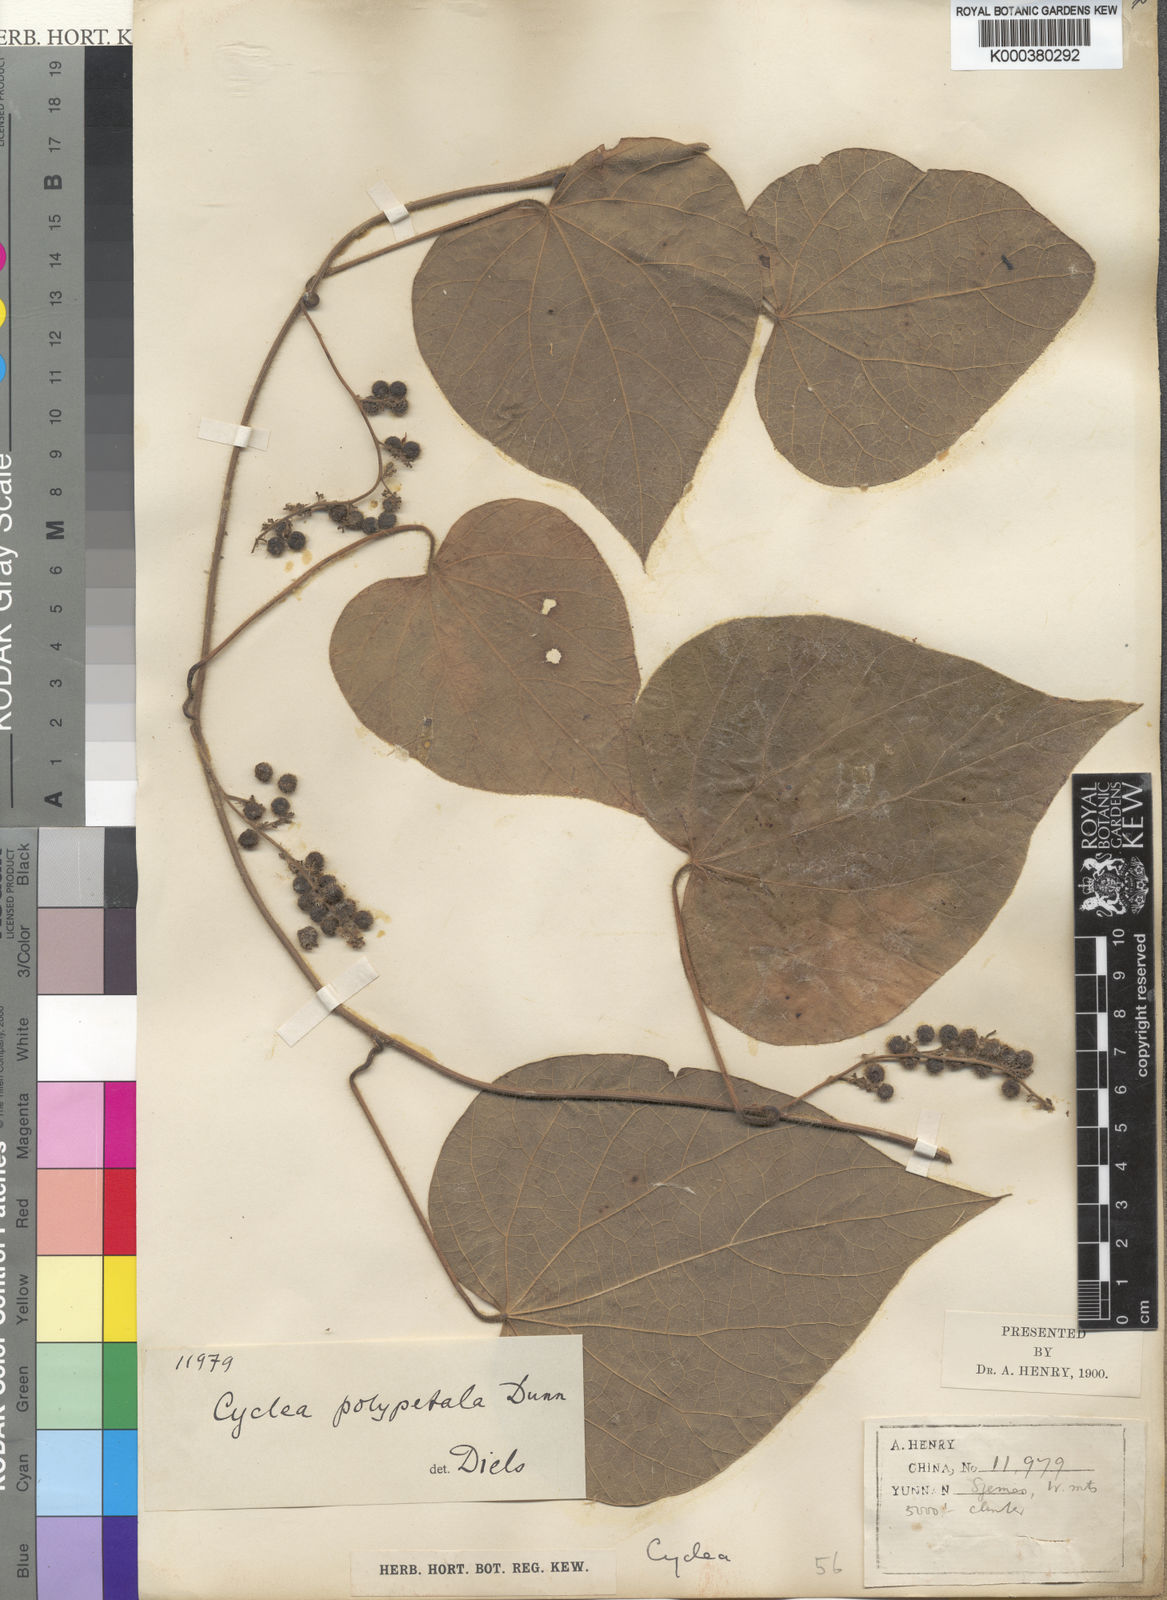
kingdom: Plantae
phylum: Tracheophyta
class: Magnoliopsida
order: Ranunculales
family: Menispermaceae
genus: Cyclea
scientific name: Cyclea polypetala
